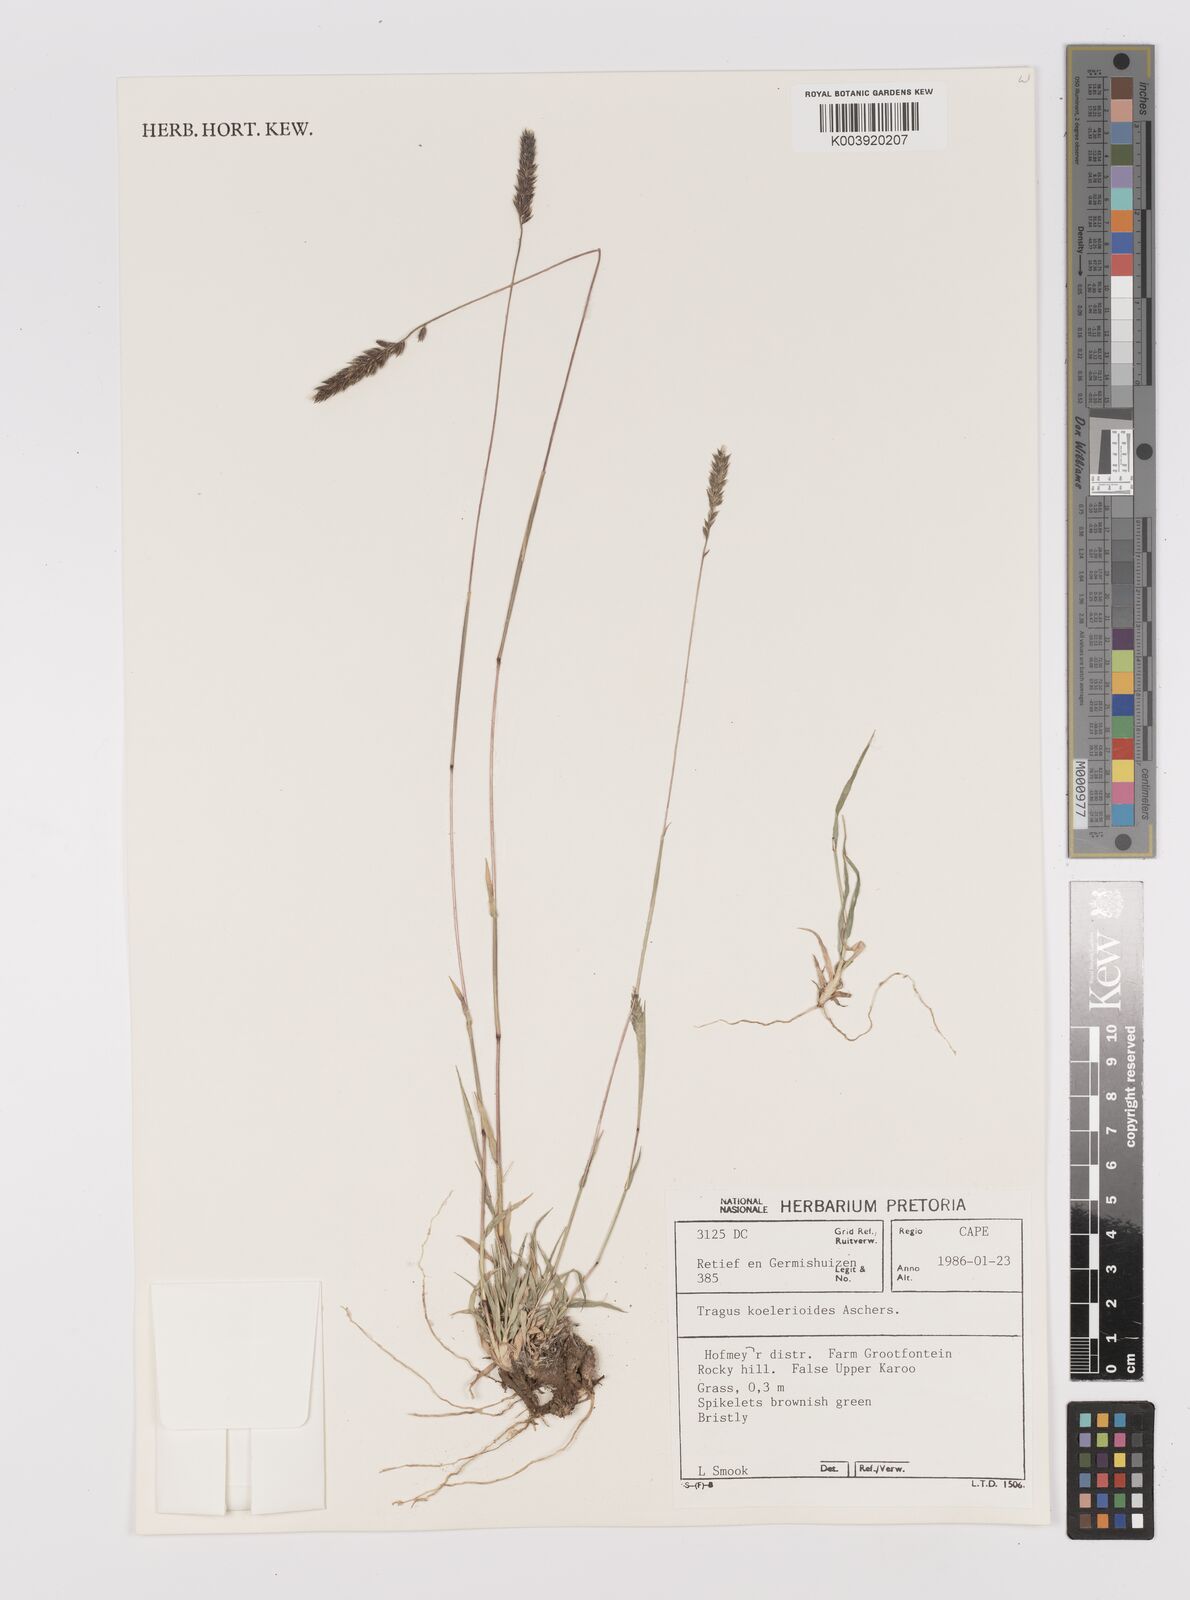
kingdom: Plantae
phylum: Tracheophyta
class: Liliopsida
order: Poales
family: Poaceae
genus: Tragus
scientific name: Tragus koelerioides
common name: Creeping carrot-seed grass
